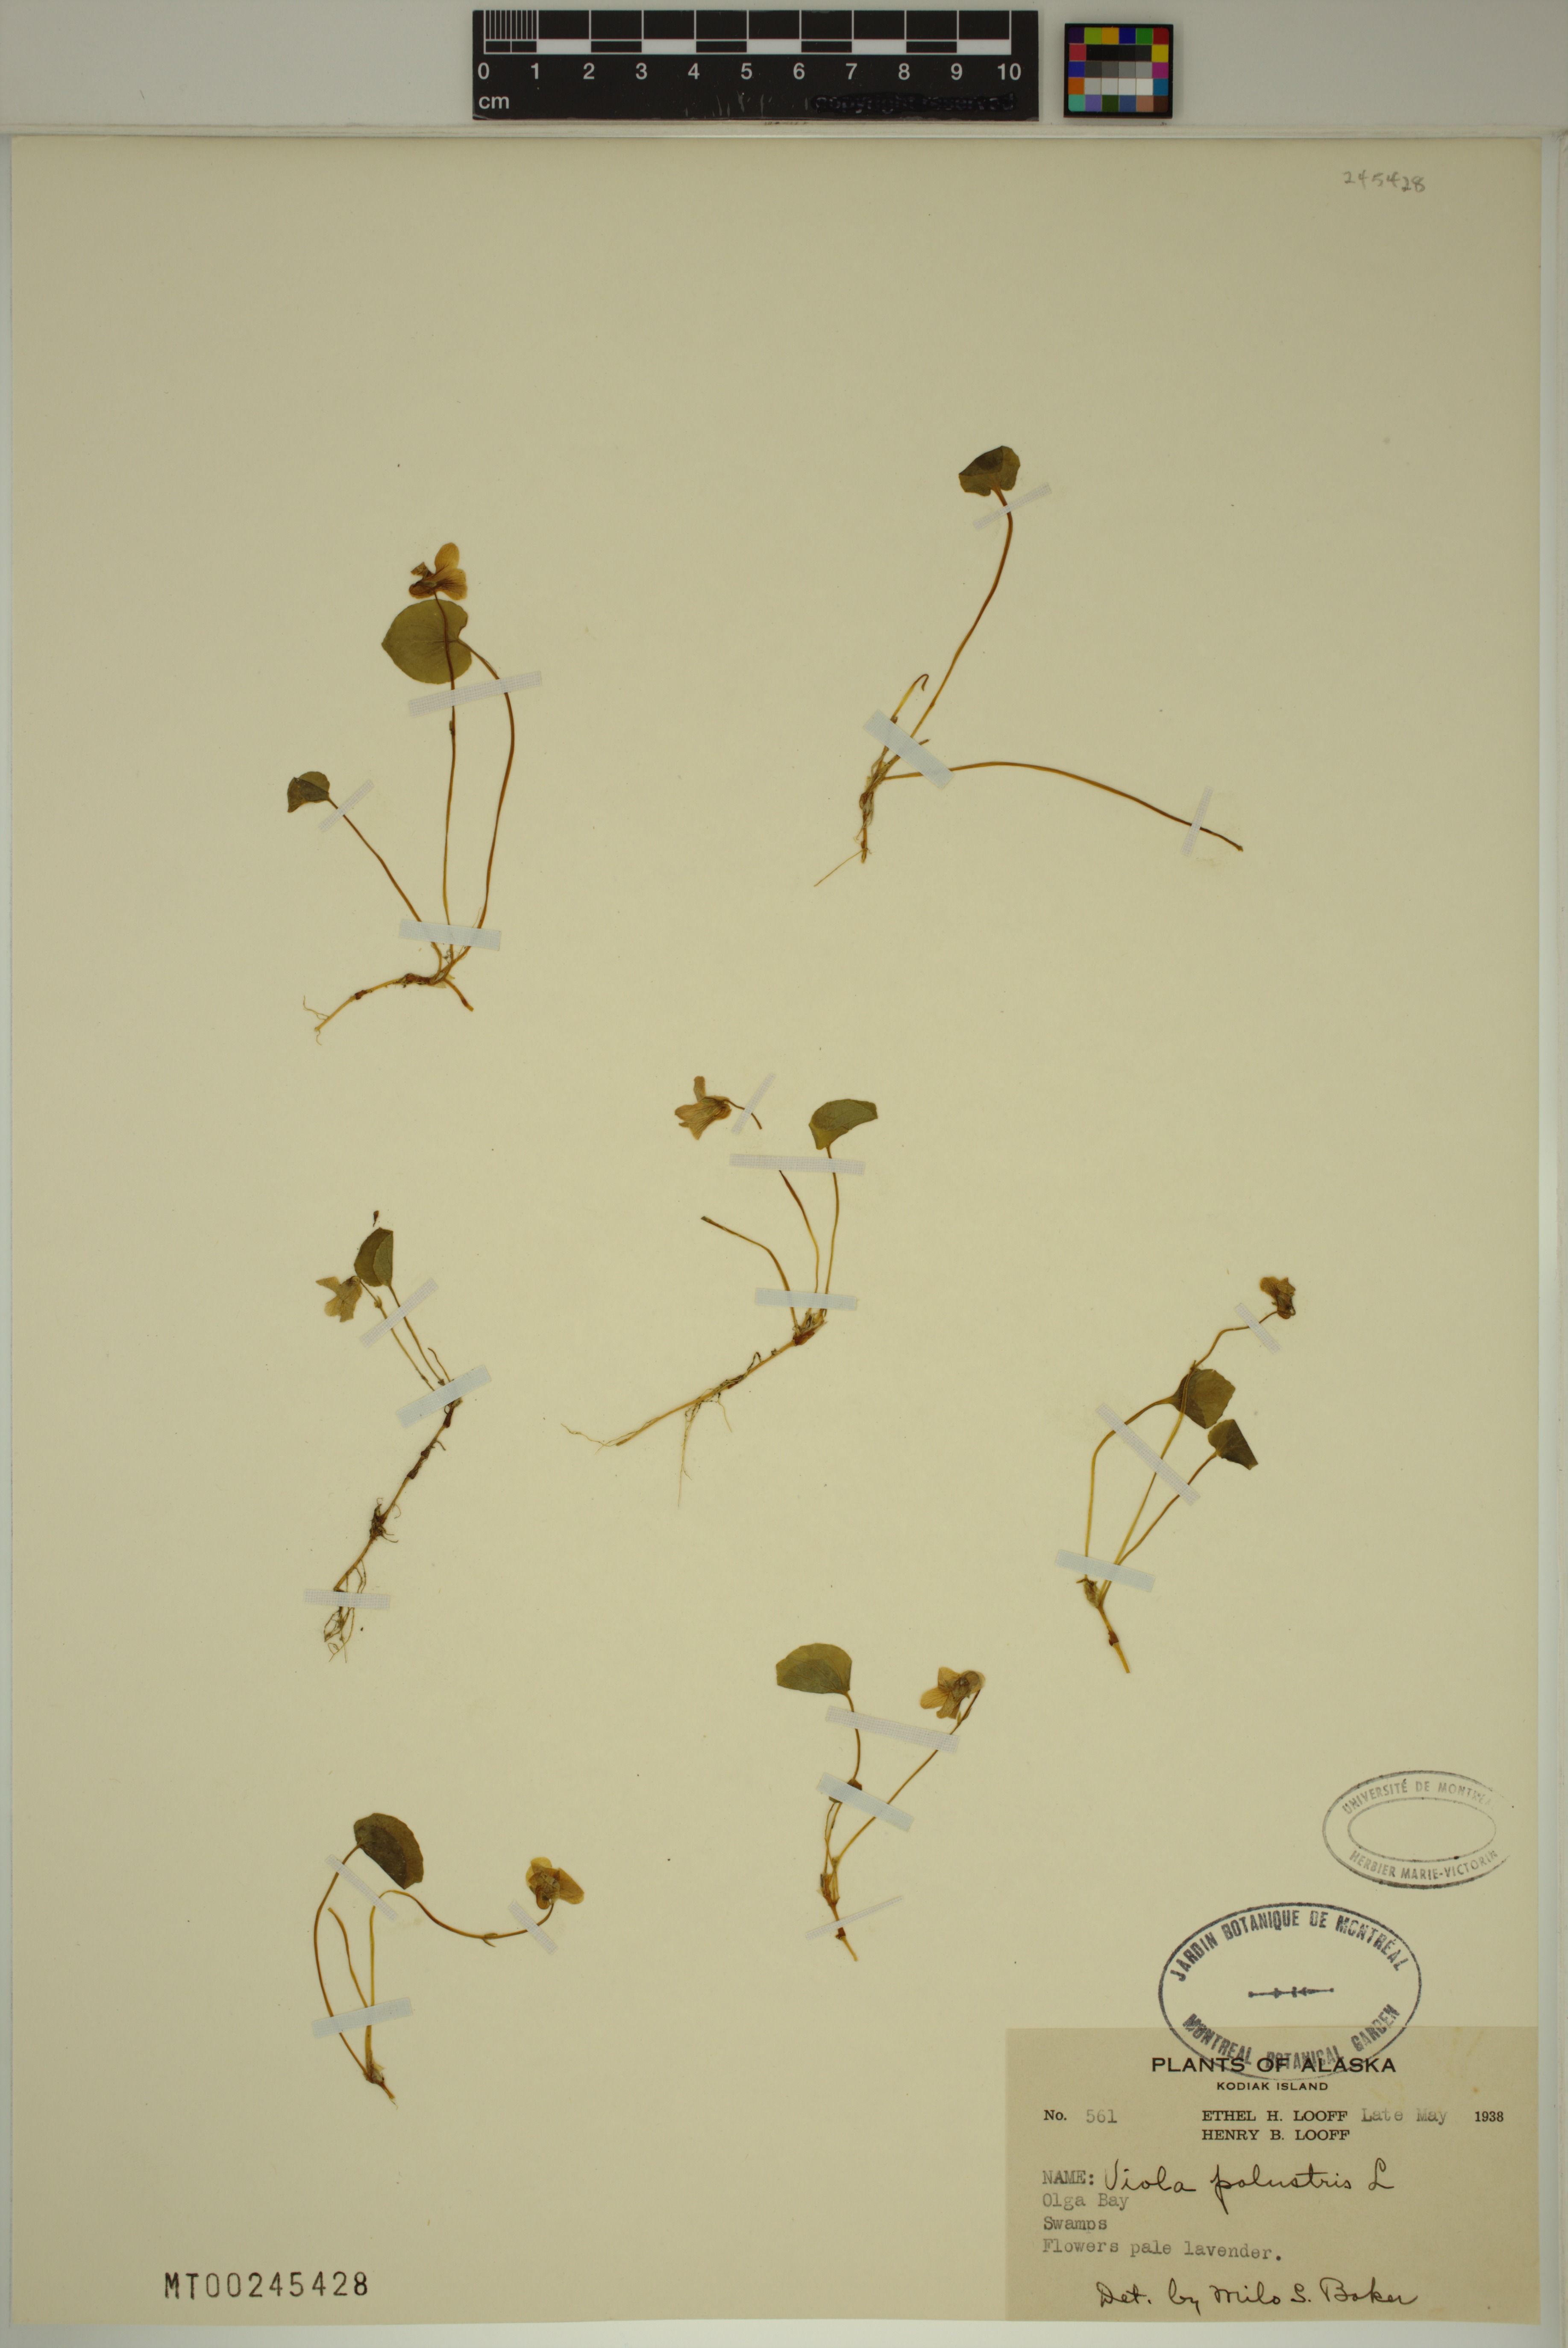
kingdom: Plantae
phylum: Tracheophyta
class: Magnoliopsida
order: Malpighiales
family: Violaceae
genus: Viola
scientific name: Viola palustris
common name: Marsh violet
